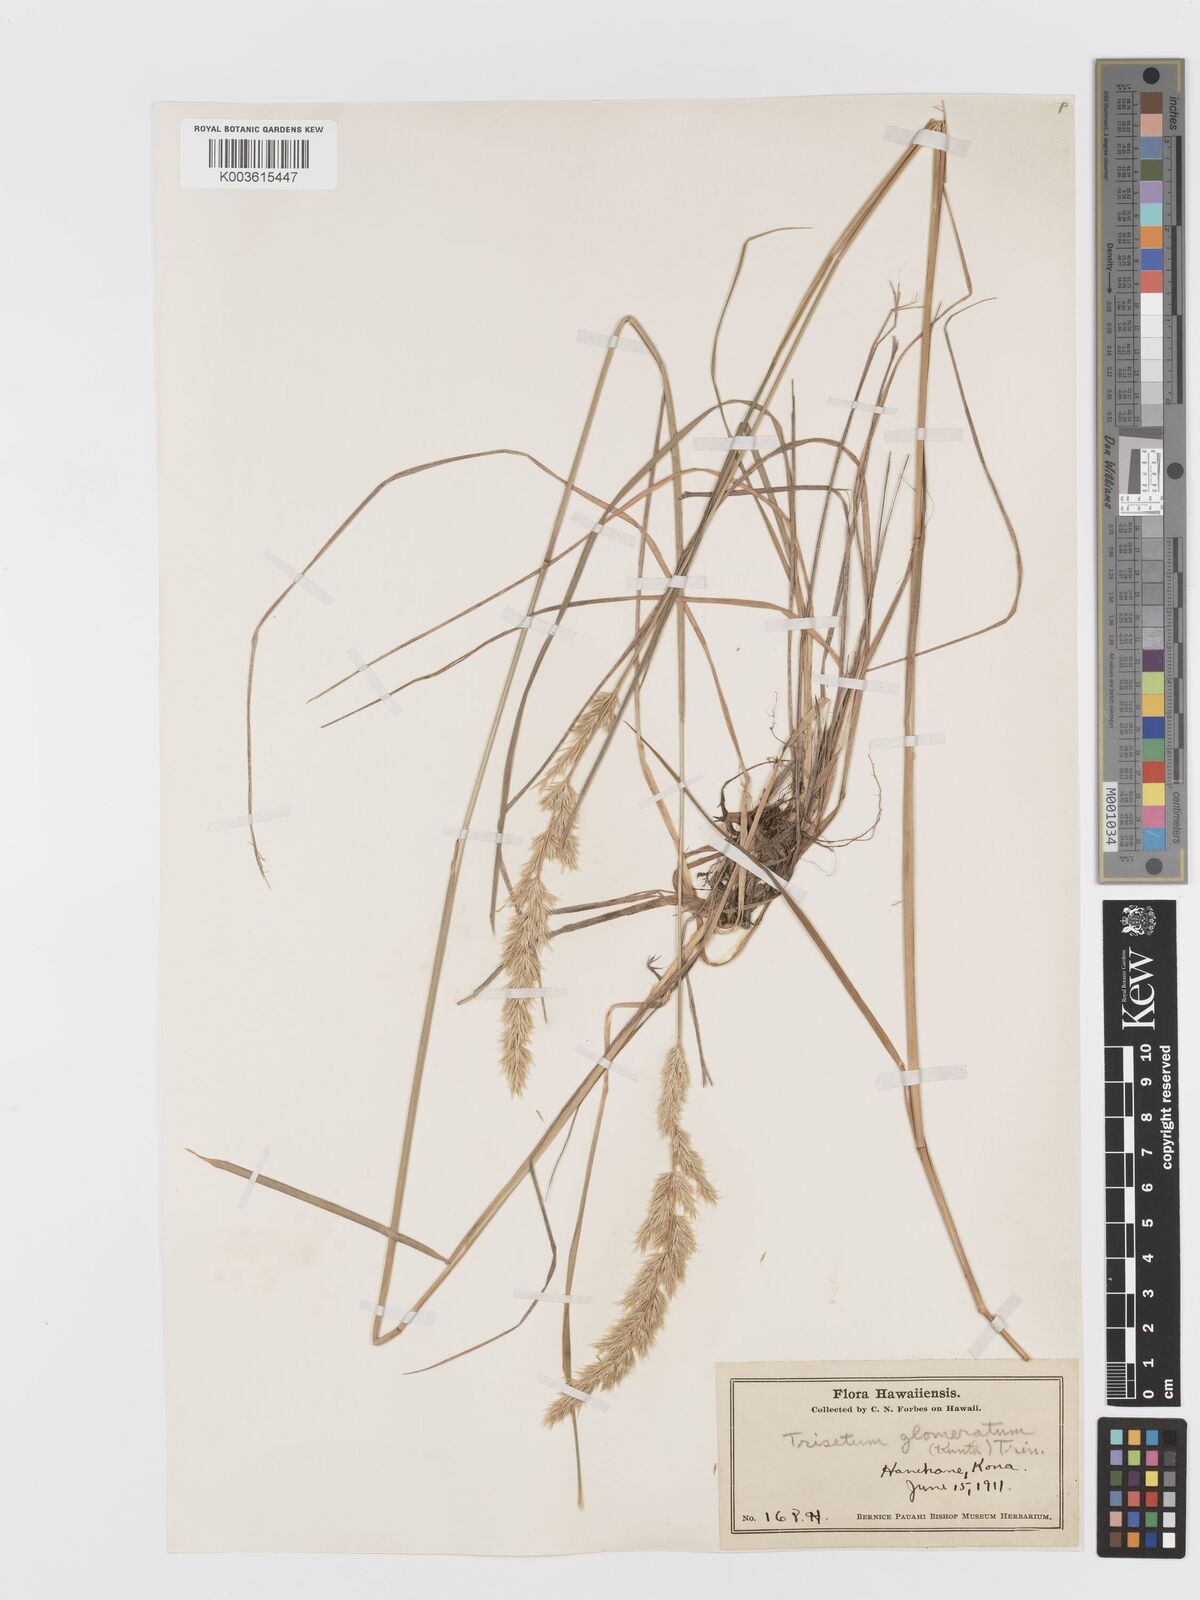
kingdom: Plantae
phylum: Tracheophyta
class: Liliopsida
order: Poales
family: Poaceae
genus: Trisetum
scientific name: Trisetum glomeratum
